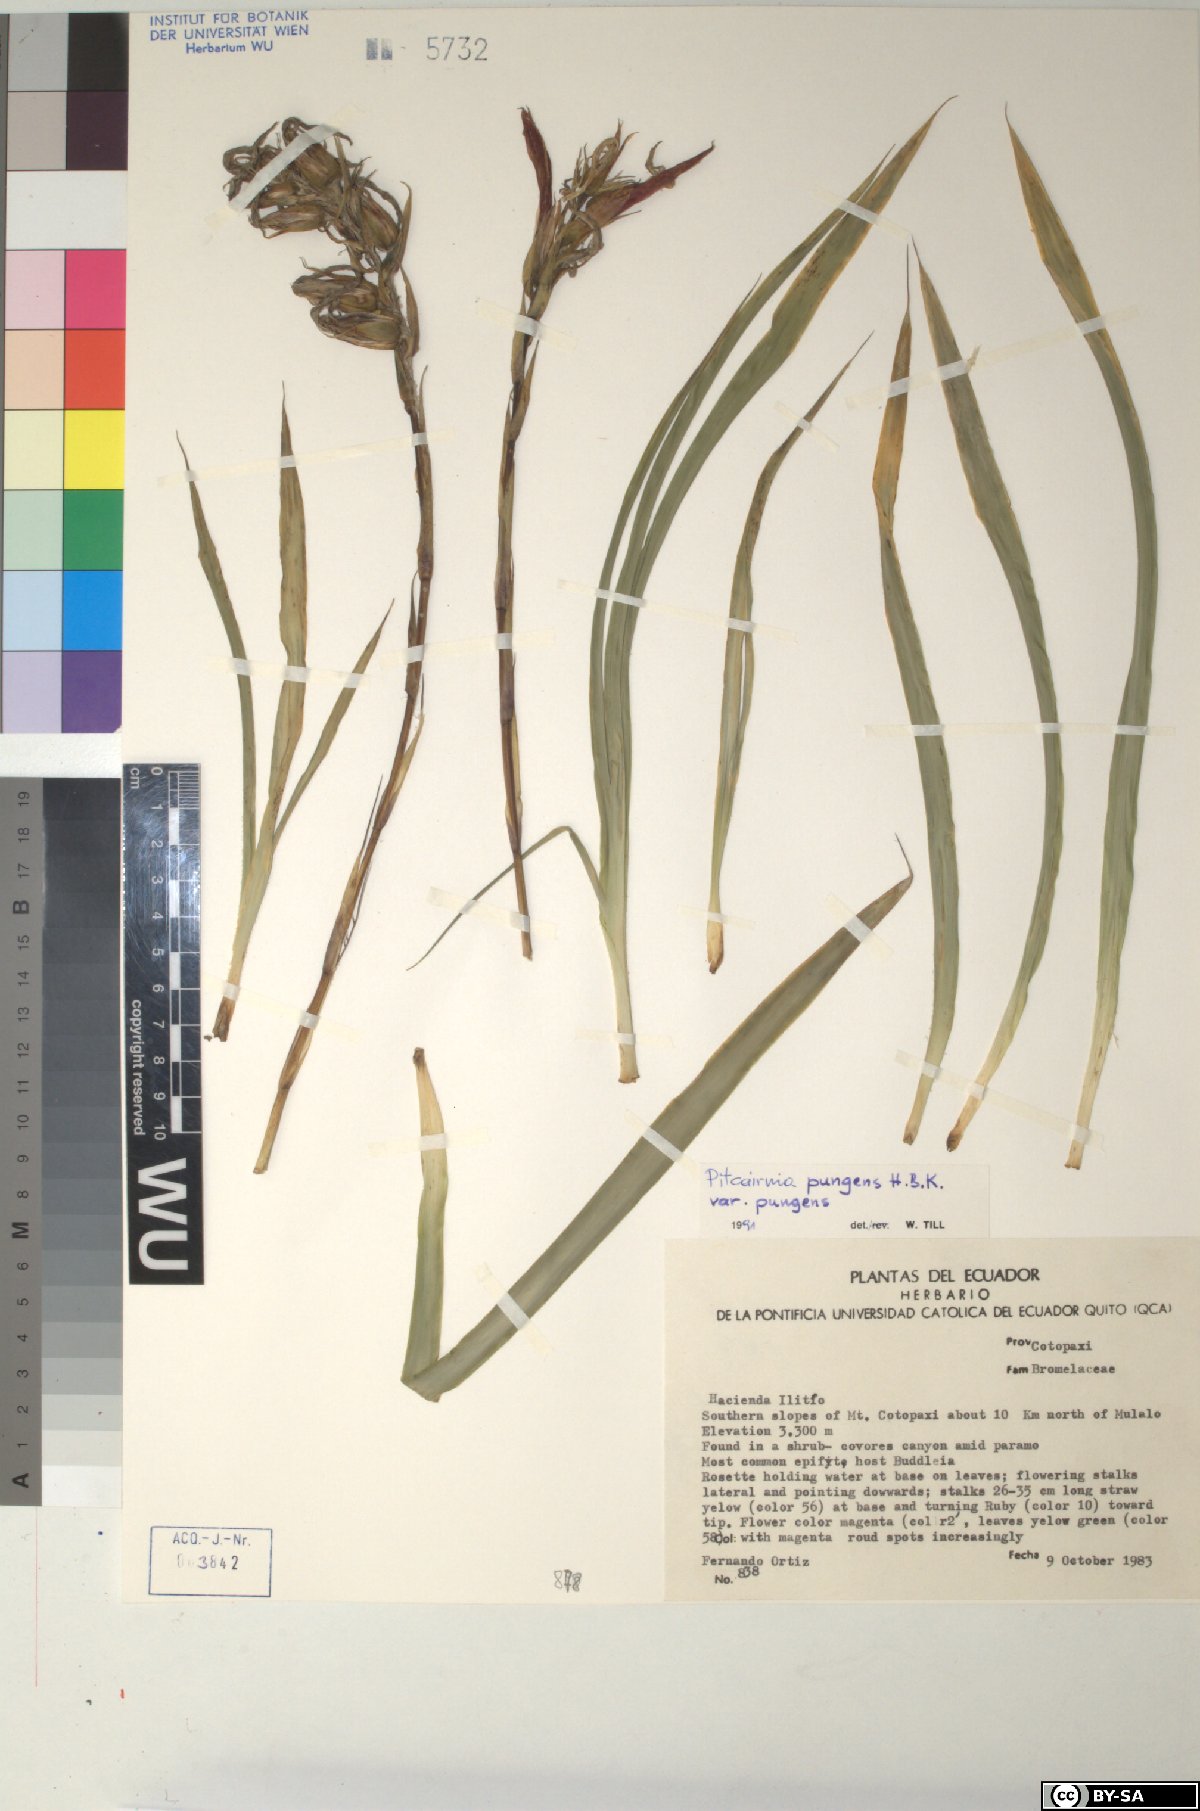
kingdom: Plantae
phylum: Tracheophyta
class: Liliopsida
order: Poales
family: Bromeliaceae
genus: Pitcairnia
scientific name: Pitcairnia pungens
